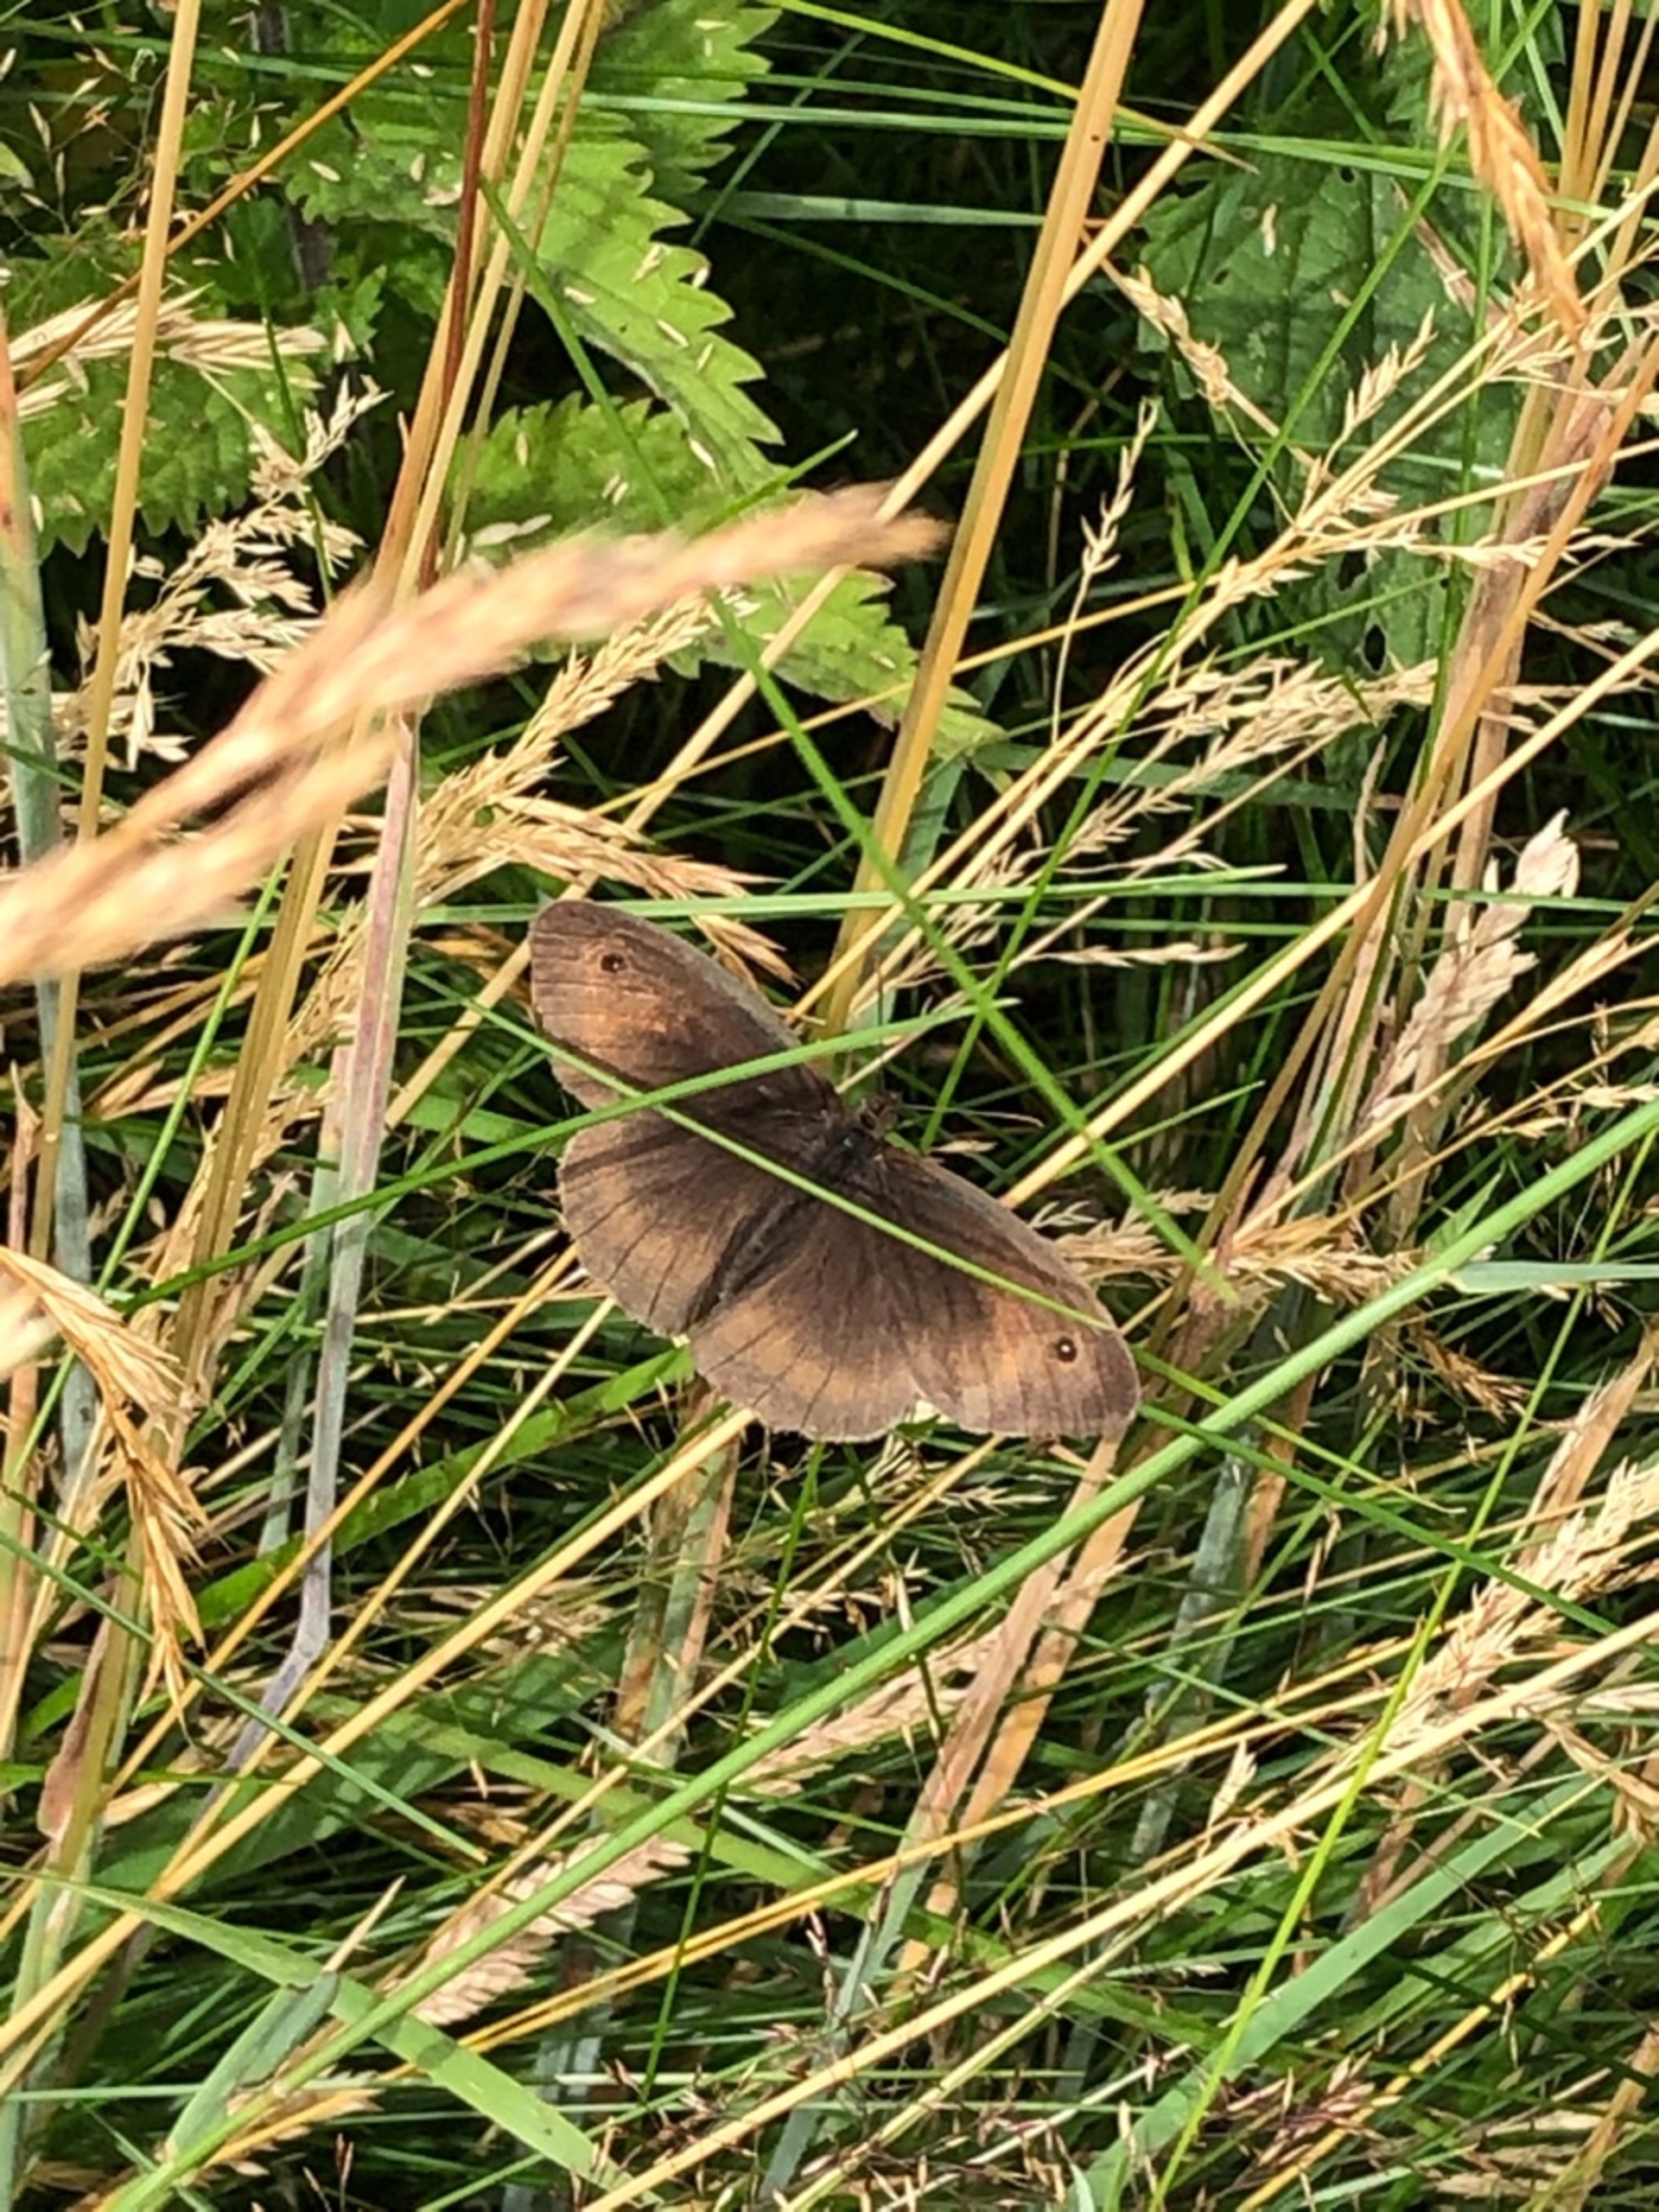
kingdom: Animalia
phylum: Arthropoda
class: Insecta
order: Lepidoptera
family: Nymphalidae
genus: Maniola
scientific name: Maniola jurtina
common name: Græsrandøje
